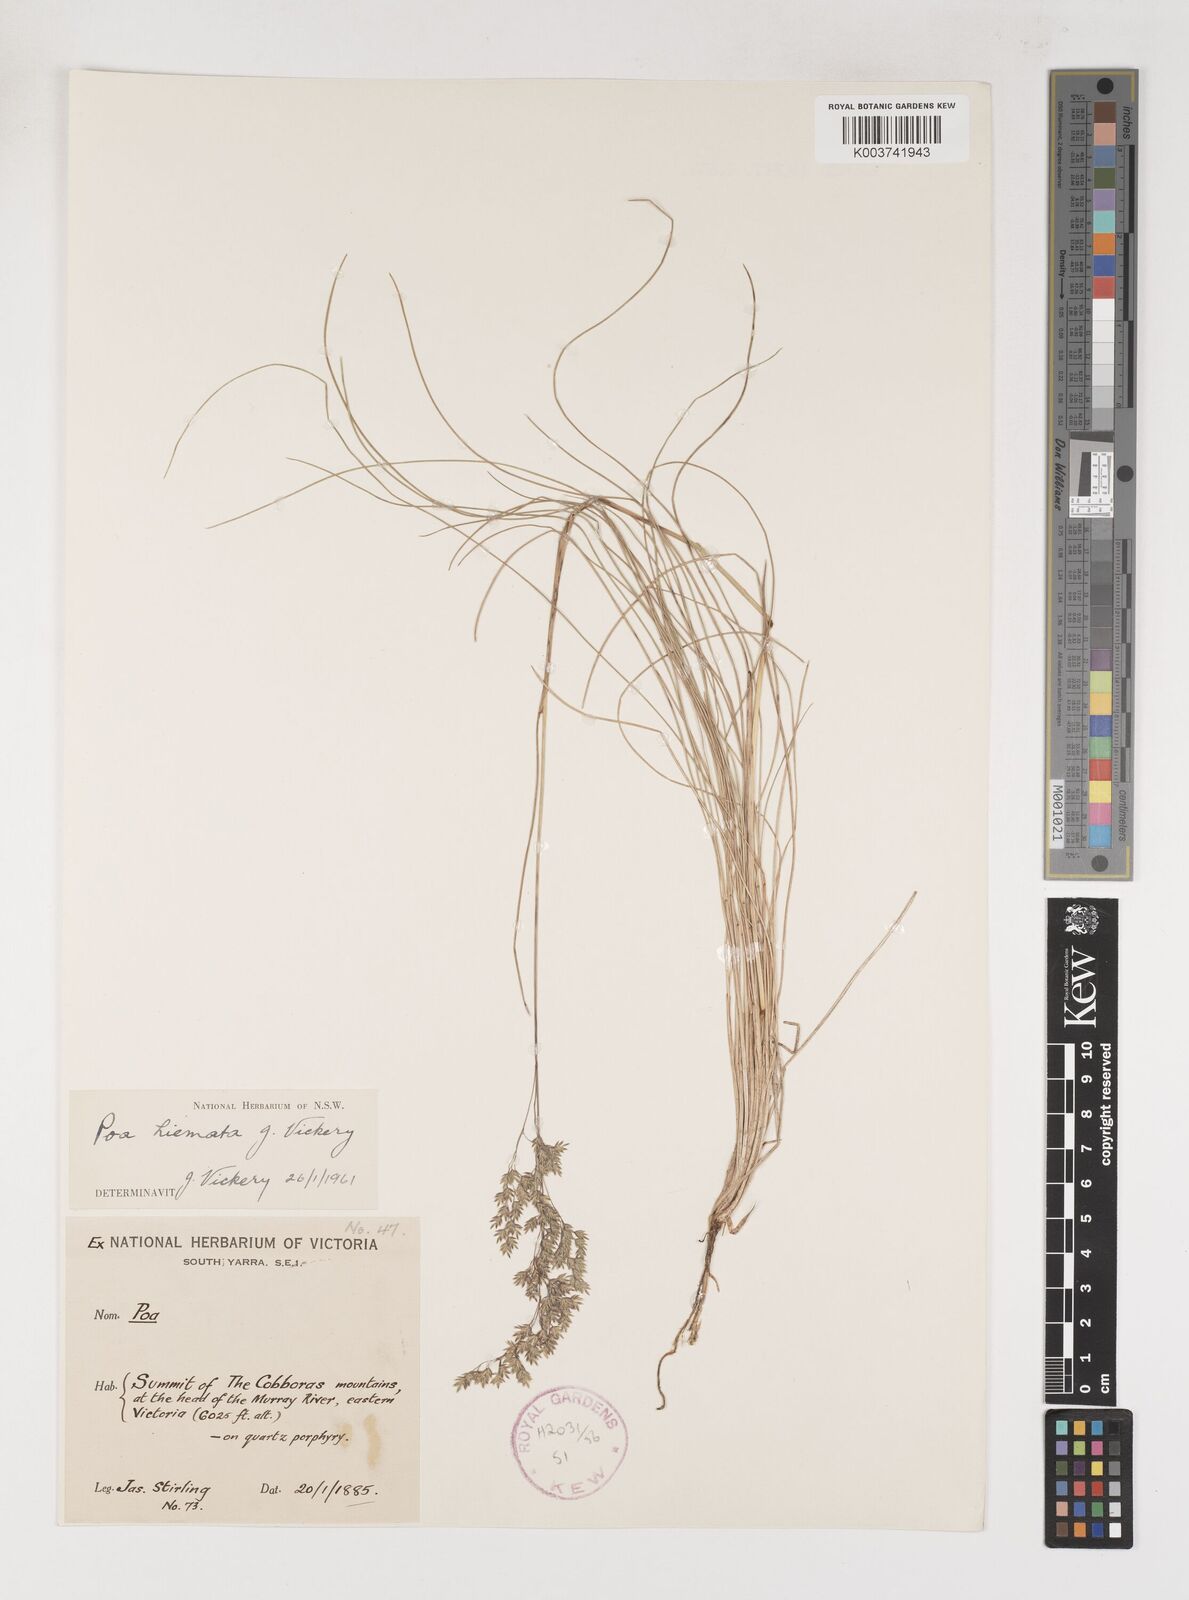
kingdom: Plantae
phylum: Tracheophyta
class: Liliopsida
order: Poales
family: Poaceae
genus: Poa
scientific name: Poa hiemata
